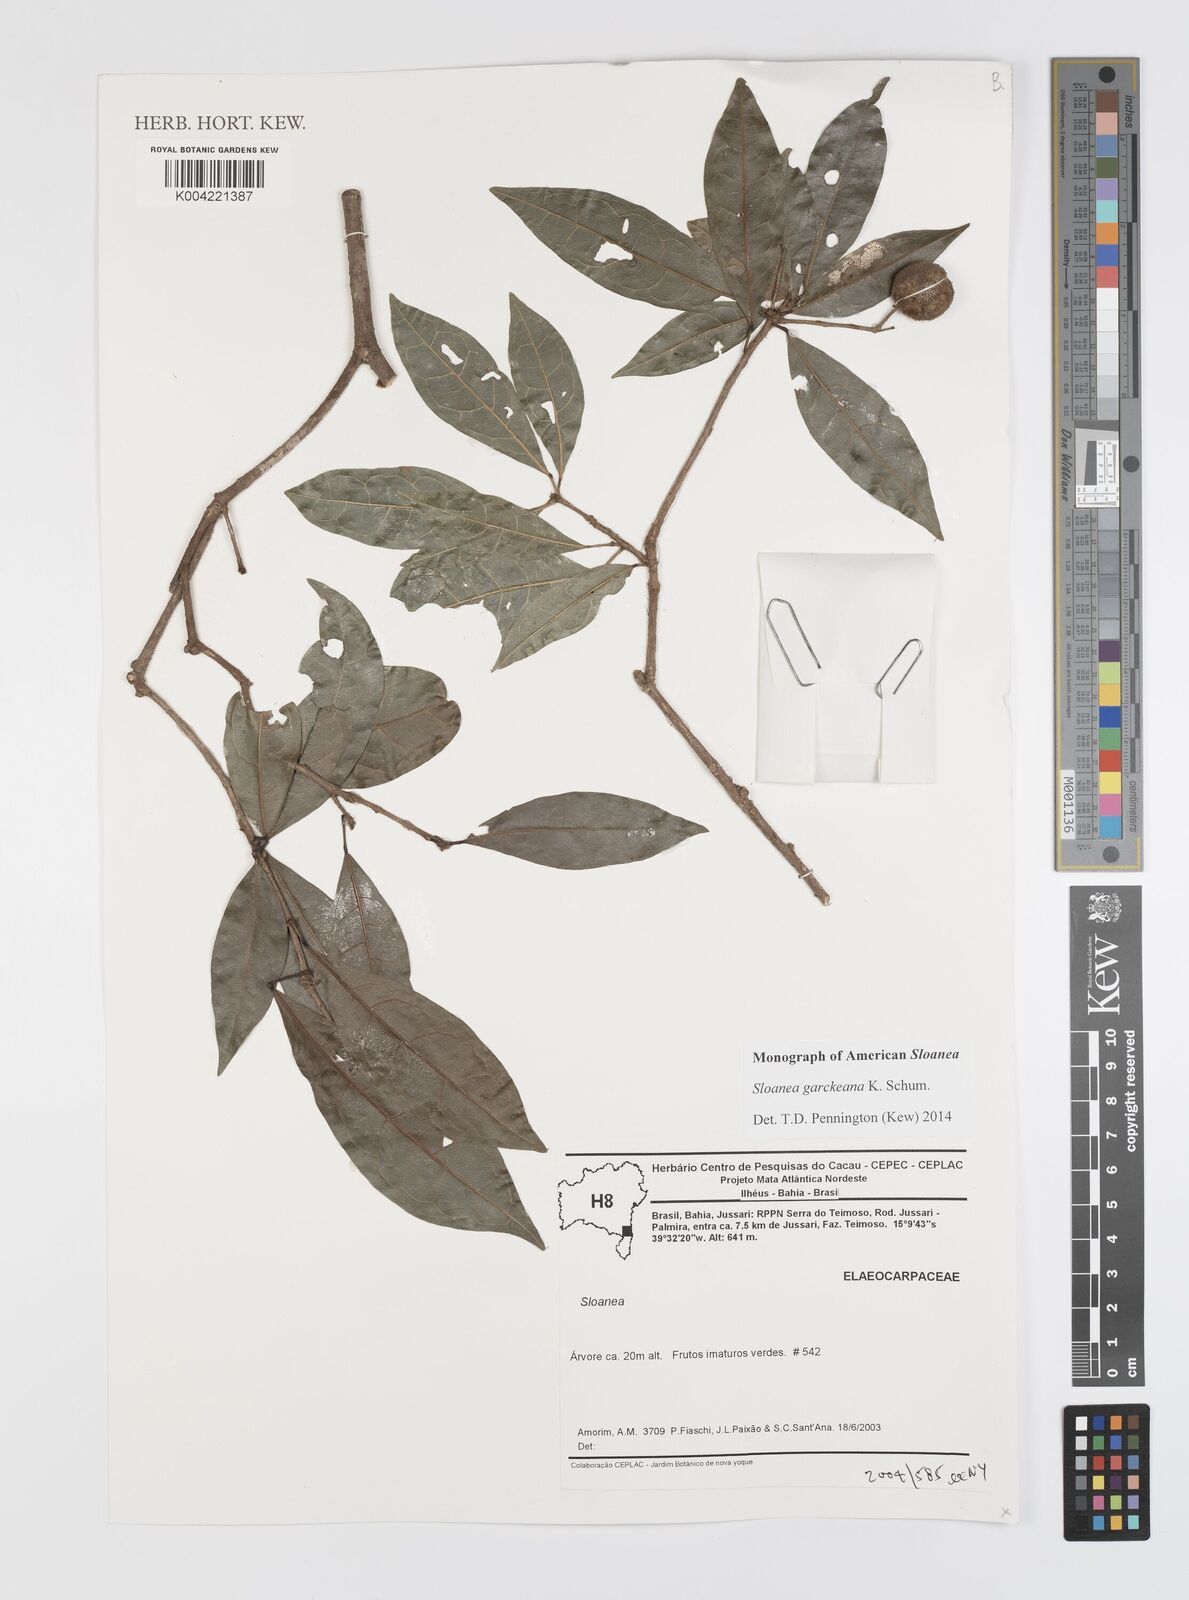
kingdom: Plantae
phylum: Tracheophyta
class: Magnoliopsida
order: Oxalidales
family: Elaeocarpaceae
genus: Sloanea
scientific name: Sloanea garckeana
